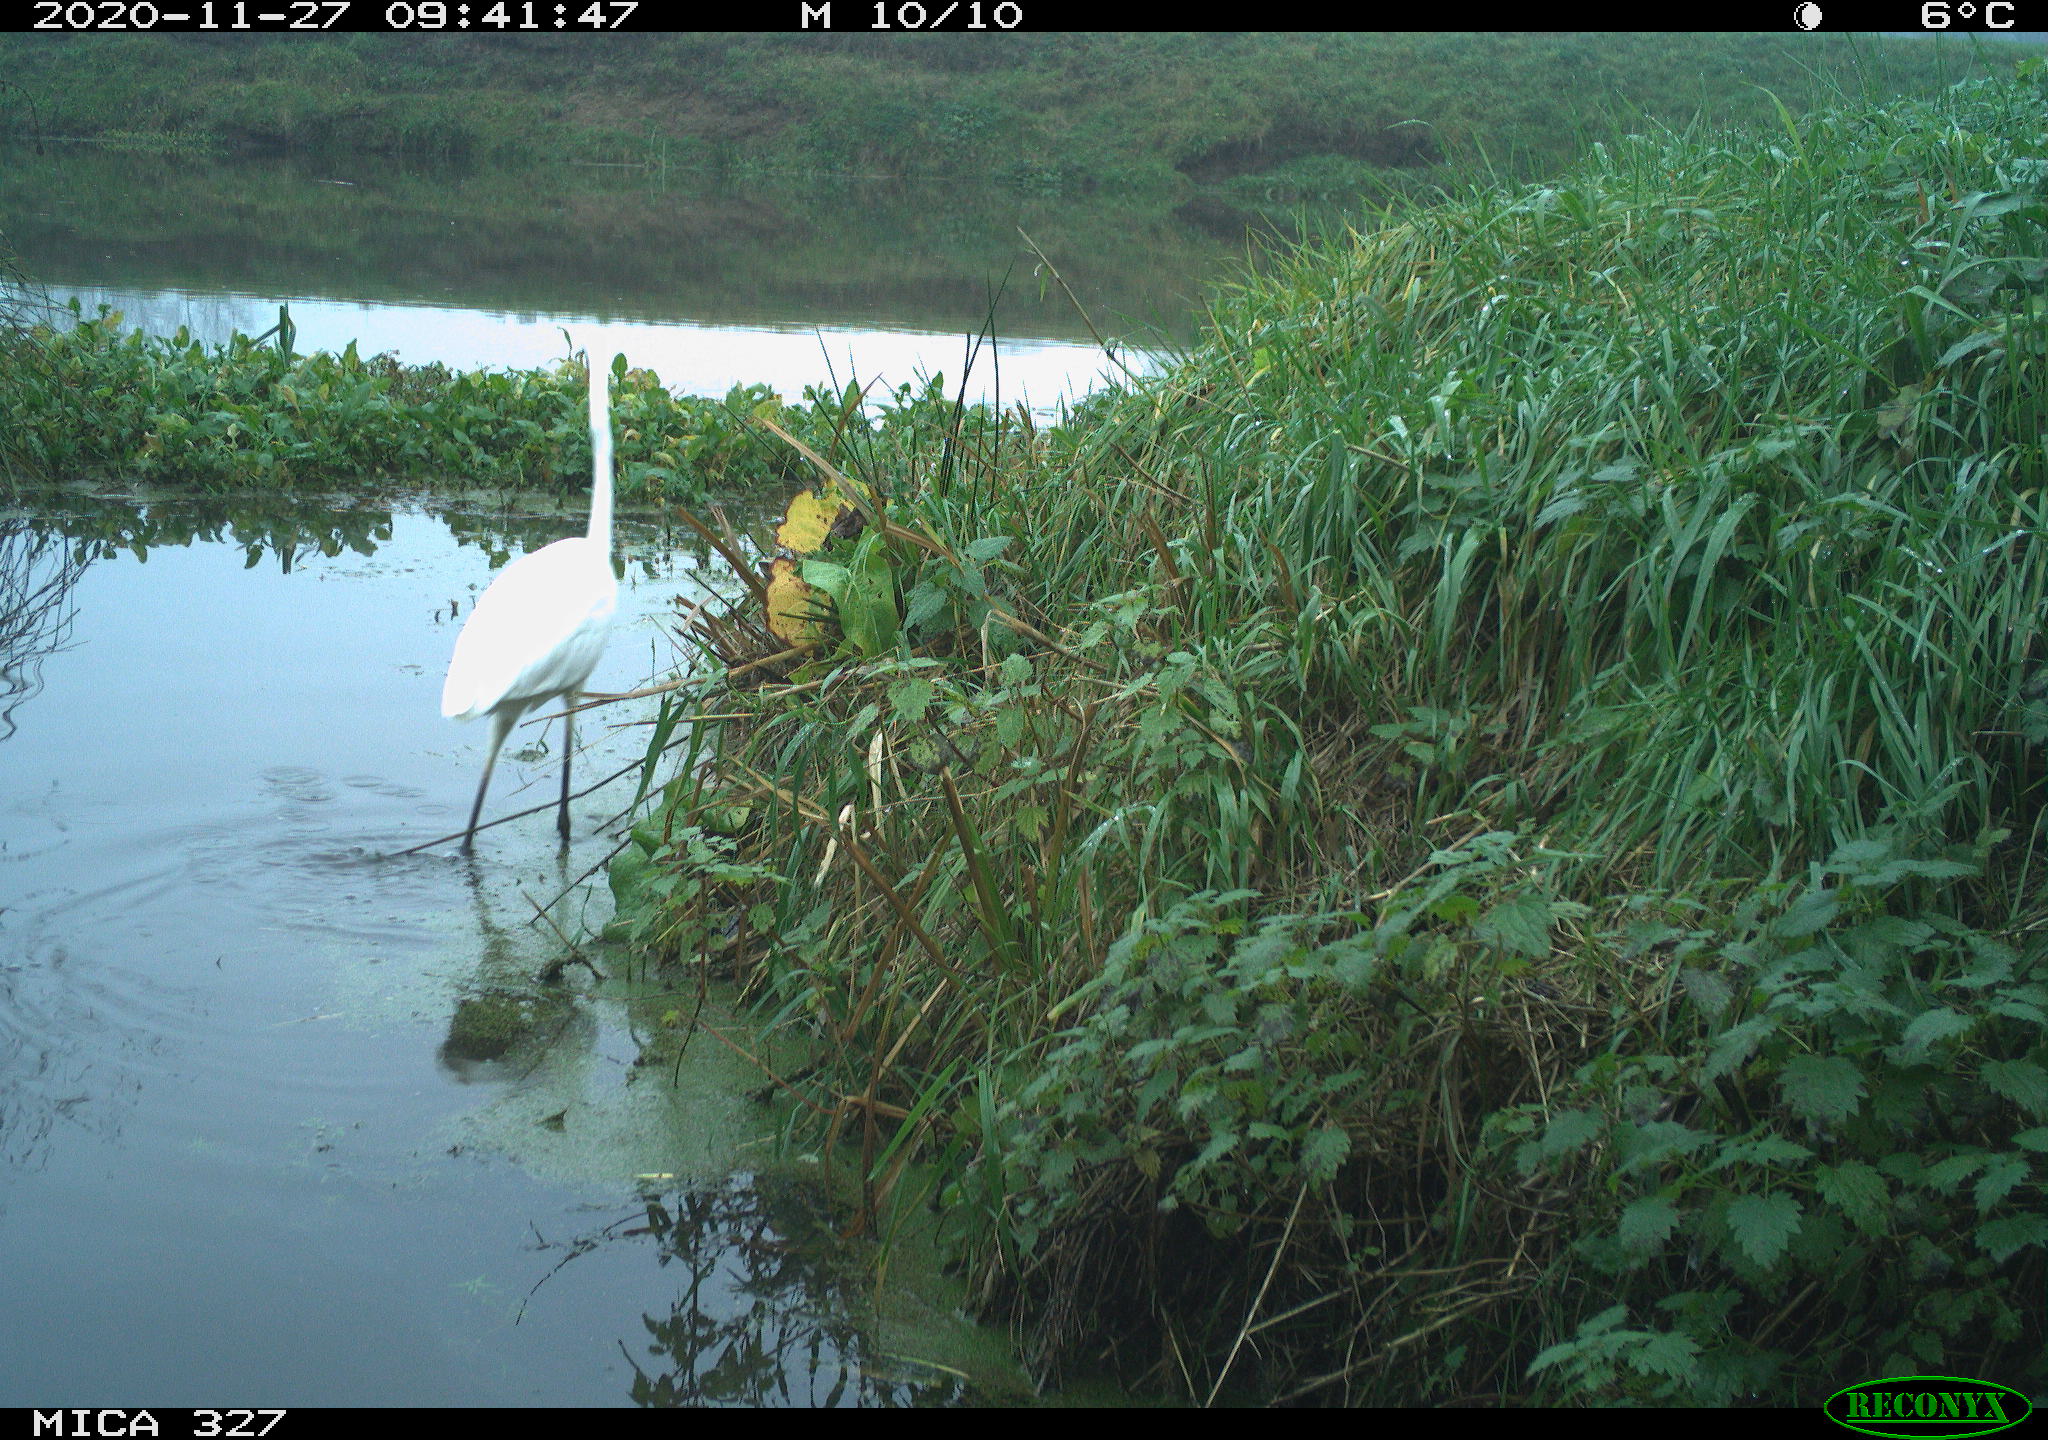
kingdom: Animalia
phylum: Chordata
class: Aves
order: Pelecaniformes
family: Ardeidae
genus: Ardea
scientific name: Ardea alba
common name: Great egret
